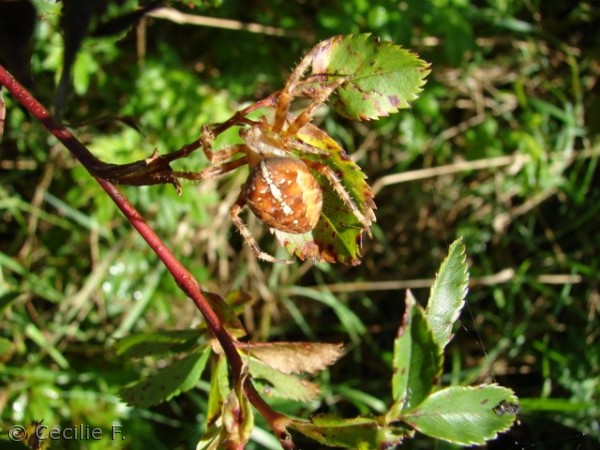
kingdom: Animalia
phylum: Arthropoda
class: Arachnida
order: Araneae
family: Araneidae
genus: Araneus
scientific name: Araneus diadematus
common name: Korsedderkop
